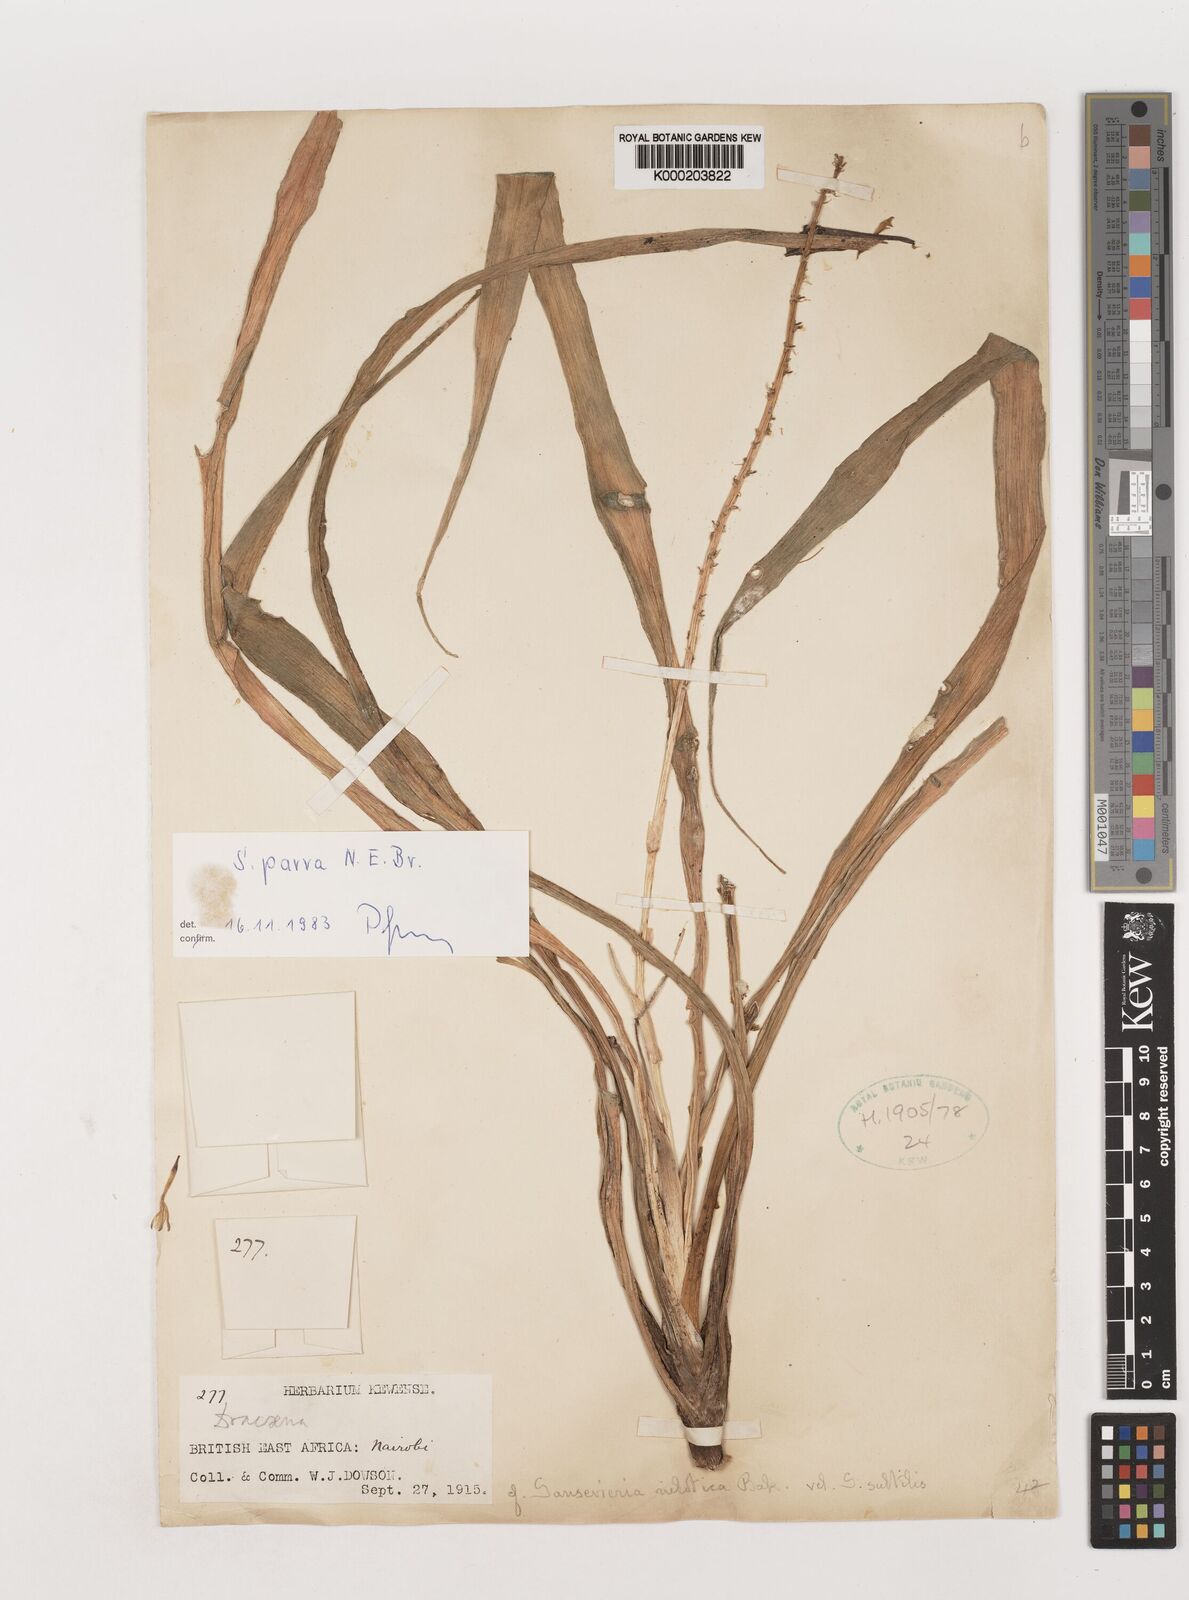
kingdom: Plantae
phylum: Tracheophyta
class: Liliopsida
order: Asparagales
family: Asparagaceae
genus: Dracaena
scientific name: Dracaena parva
